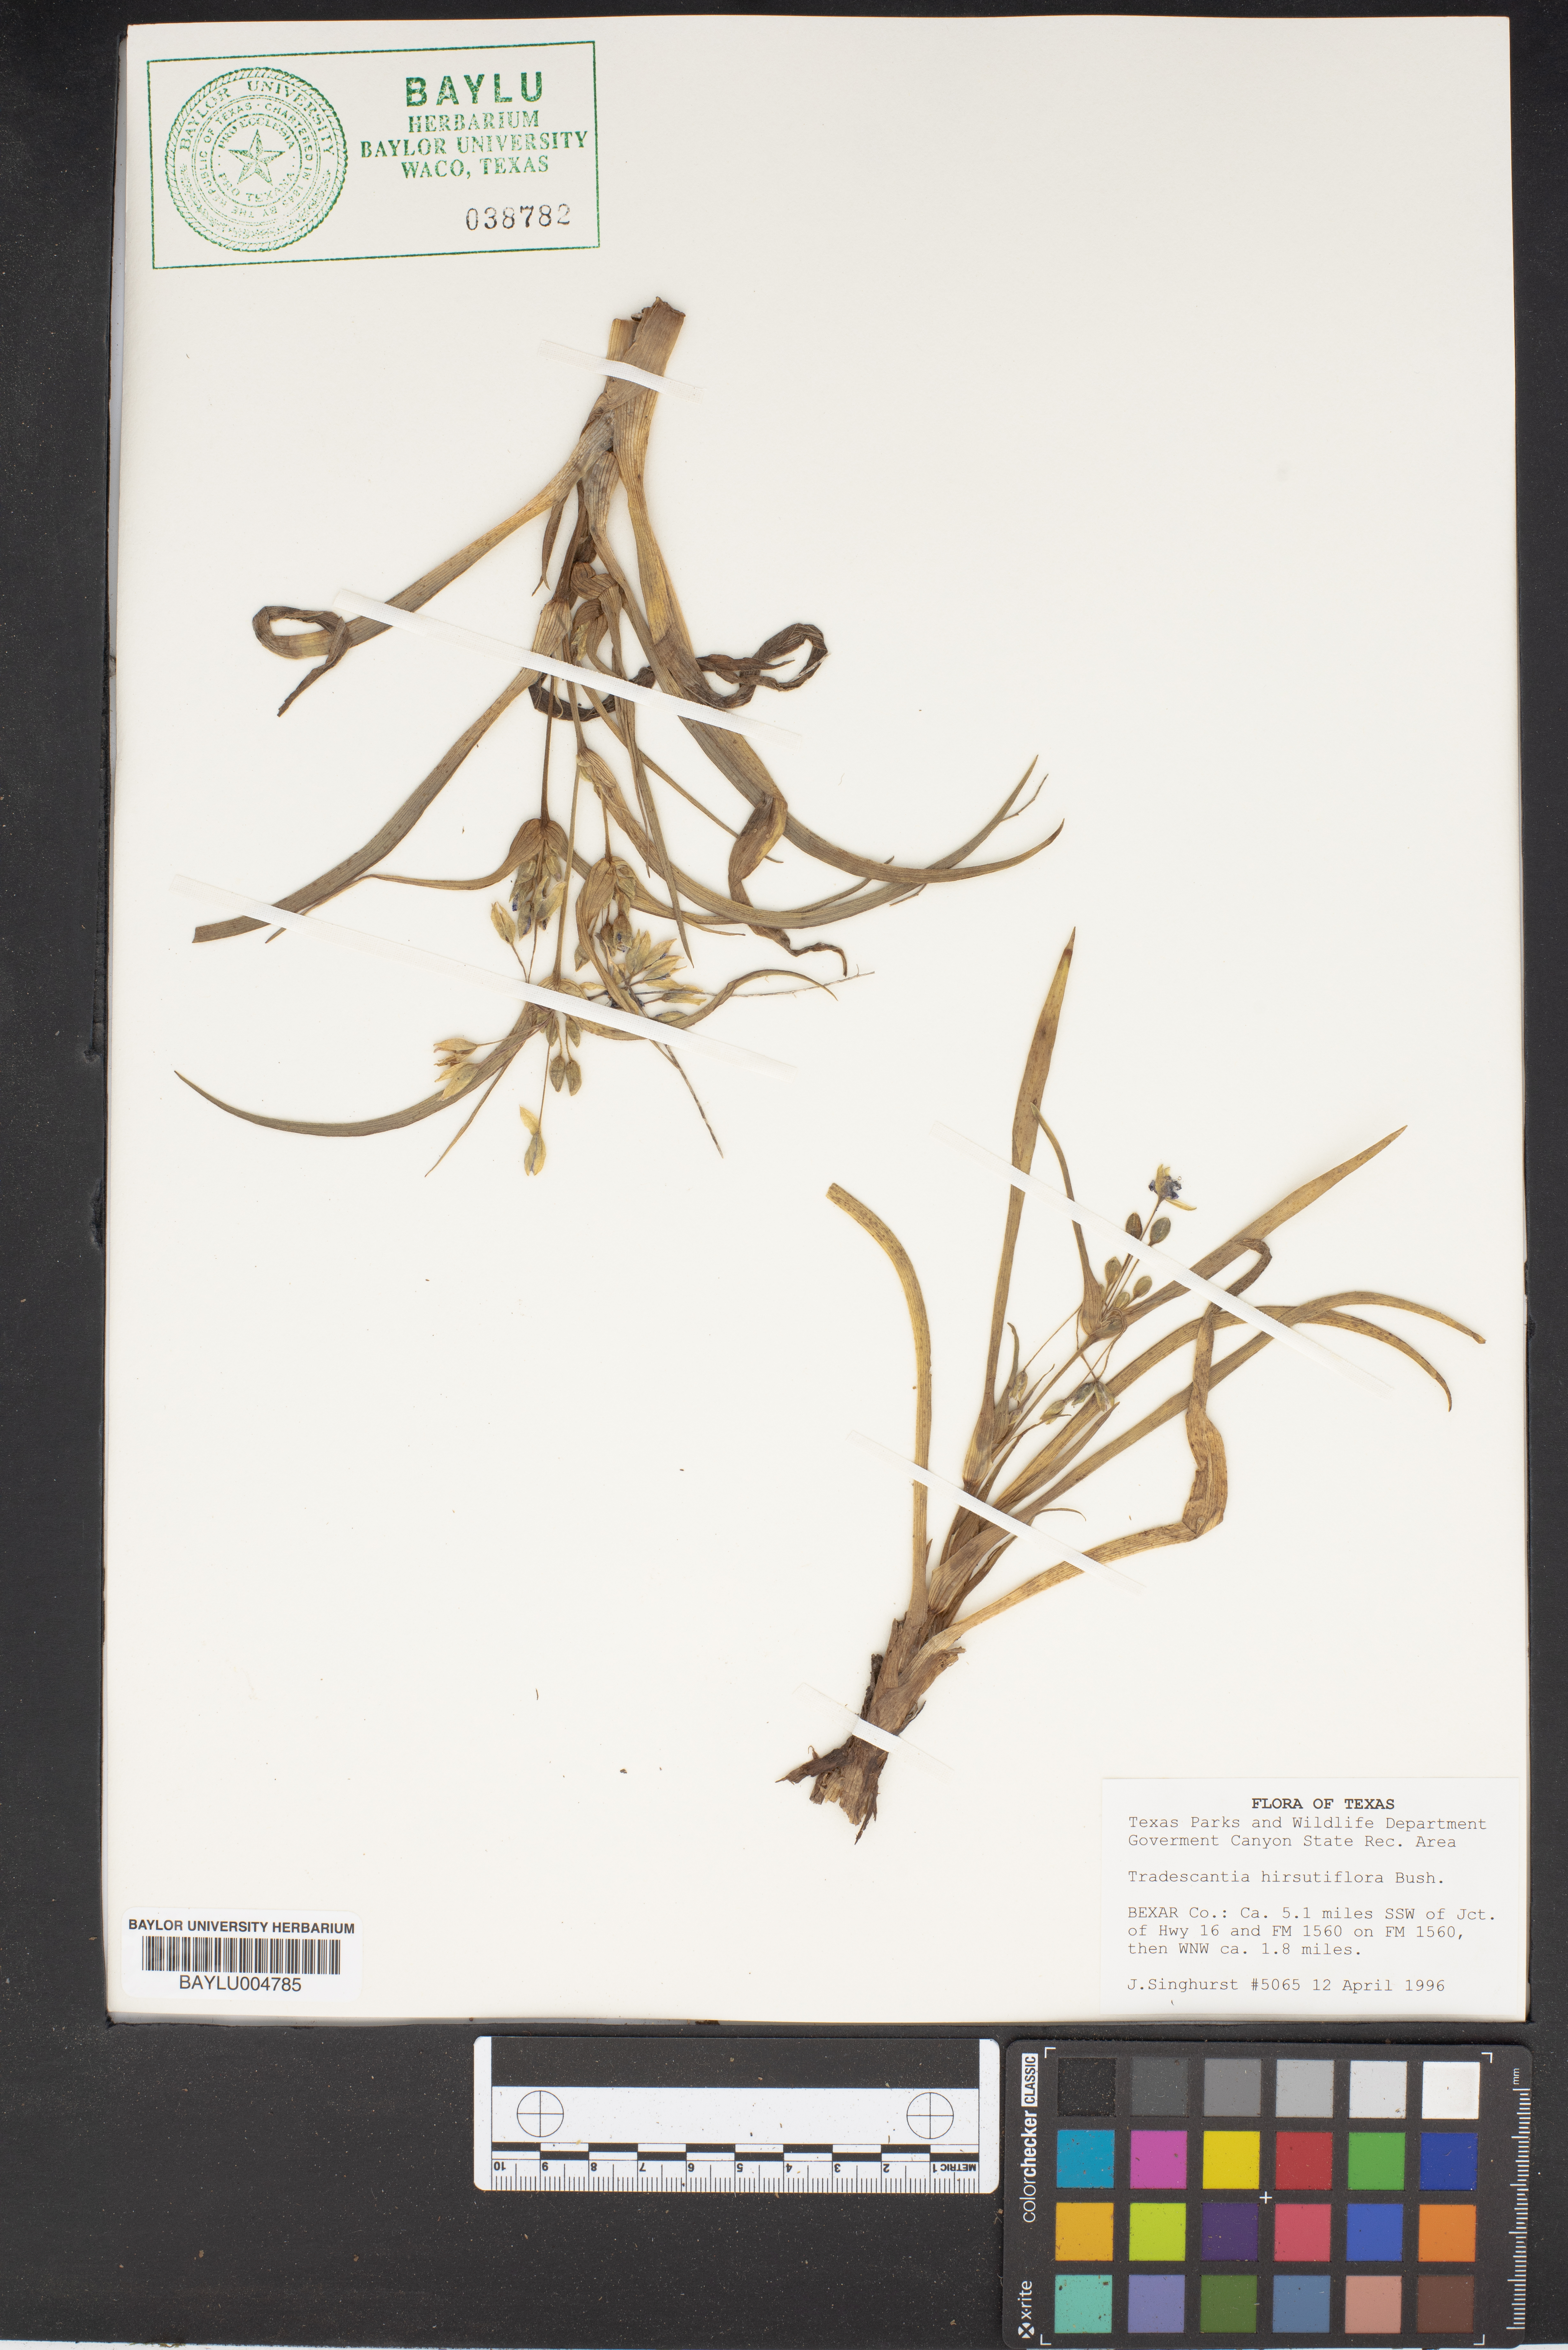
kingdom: Plantae
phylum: Tracheophyta
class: Liliopsida
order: Commelinales
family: Commelinaceae
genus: Tradescantia
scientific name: Tradescantia hirsutiflora
